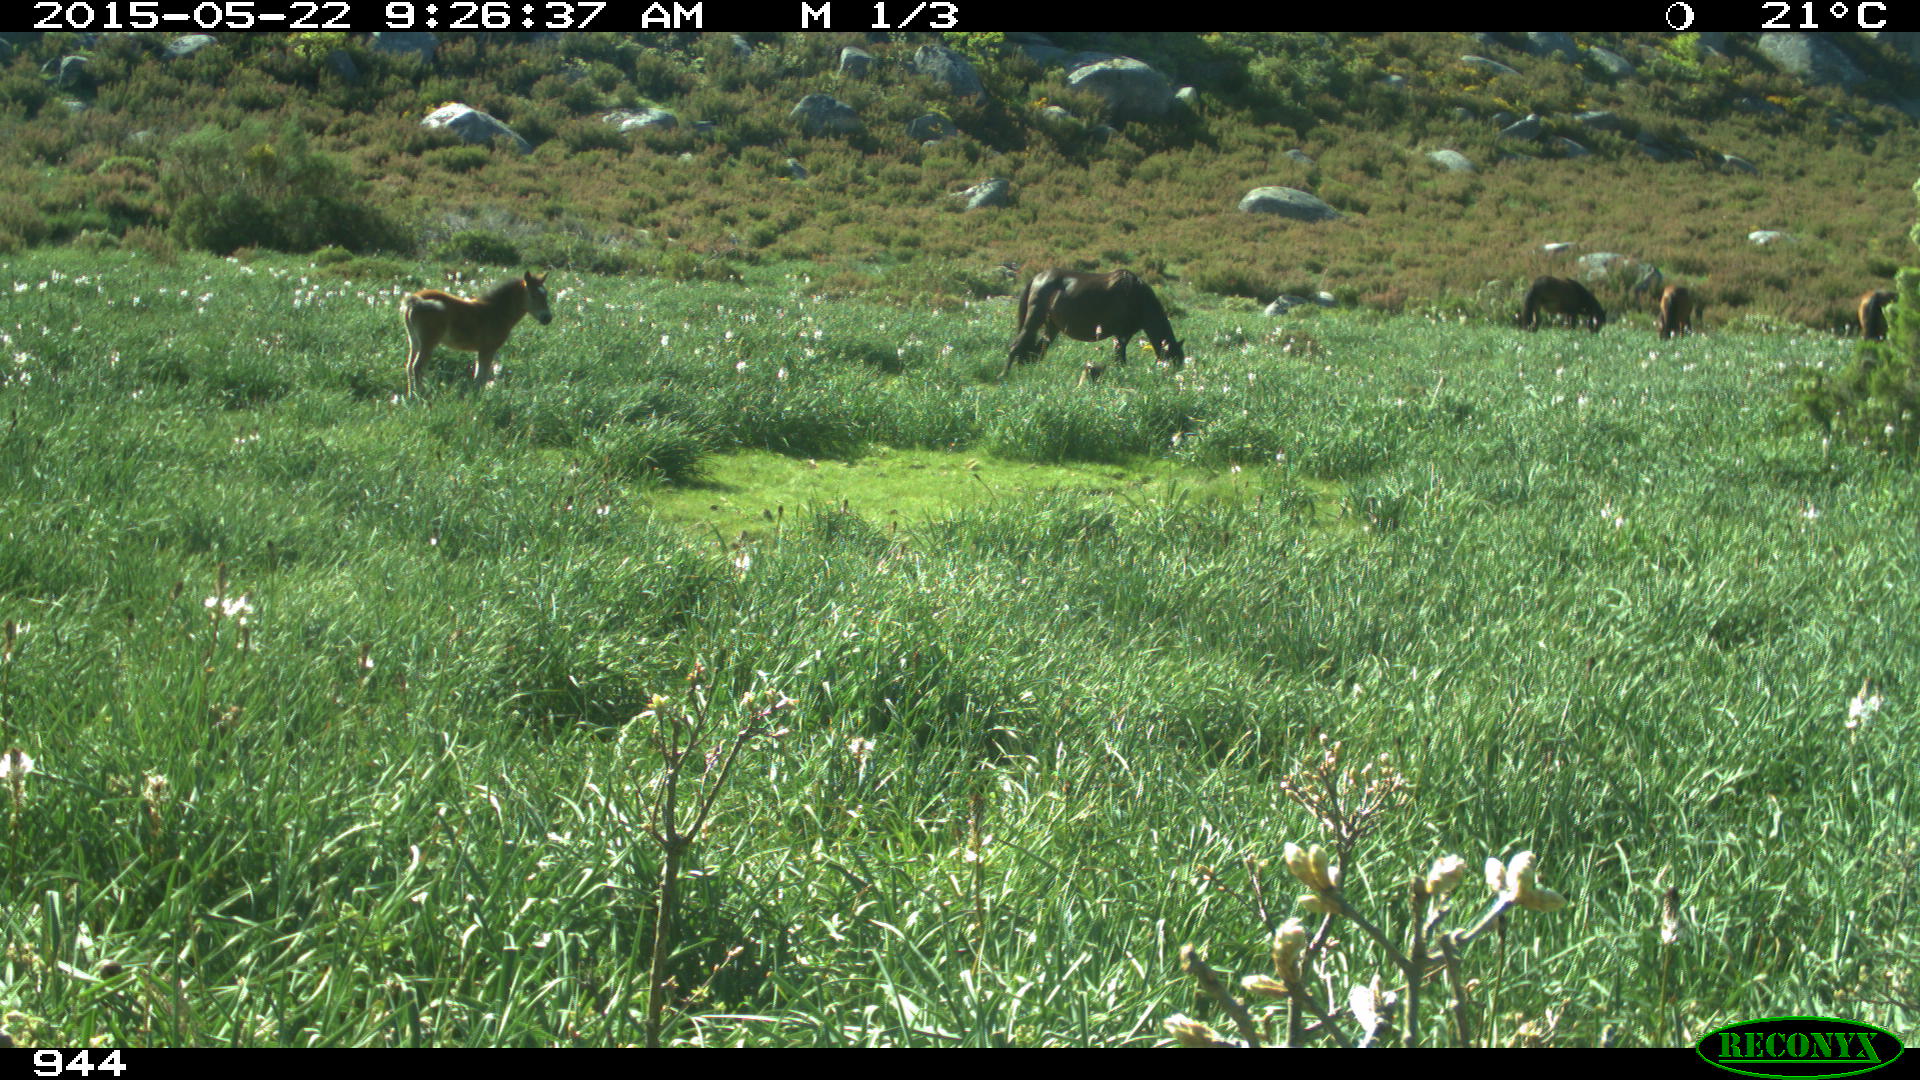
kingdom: Animalia
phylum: Chordata
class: Mammalia
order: Perissodactyla
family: Equidae
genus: Equus
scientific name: Equus caballus
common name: Horse
